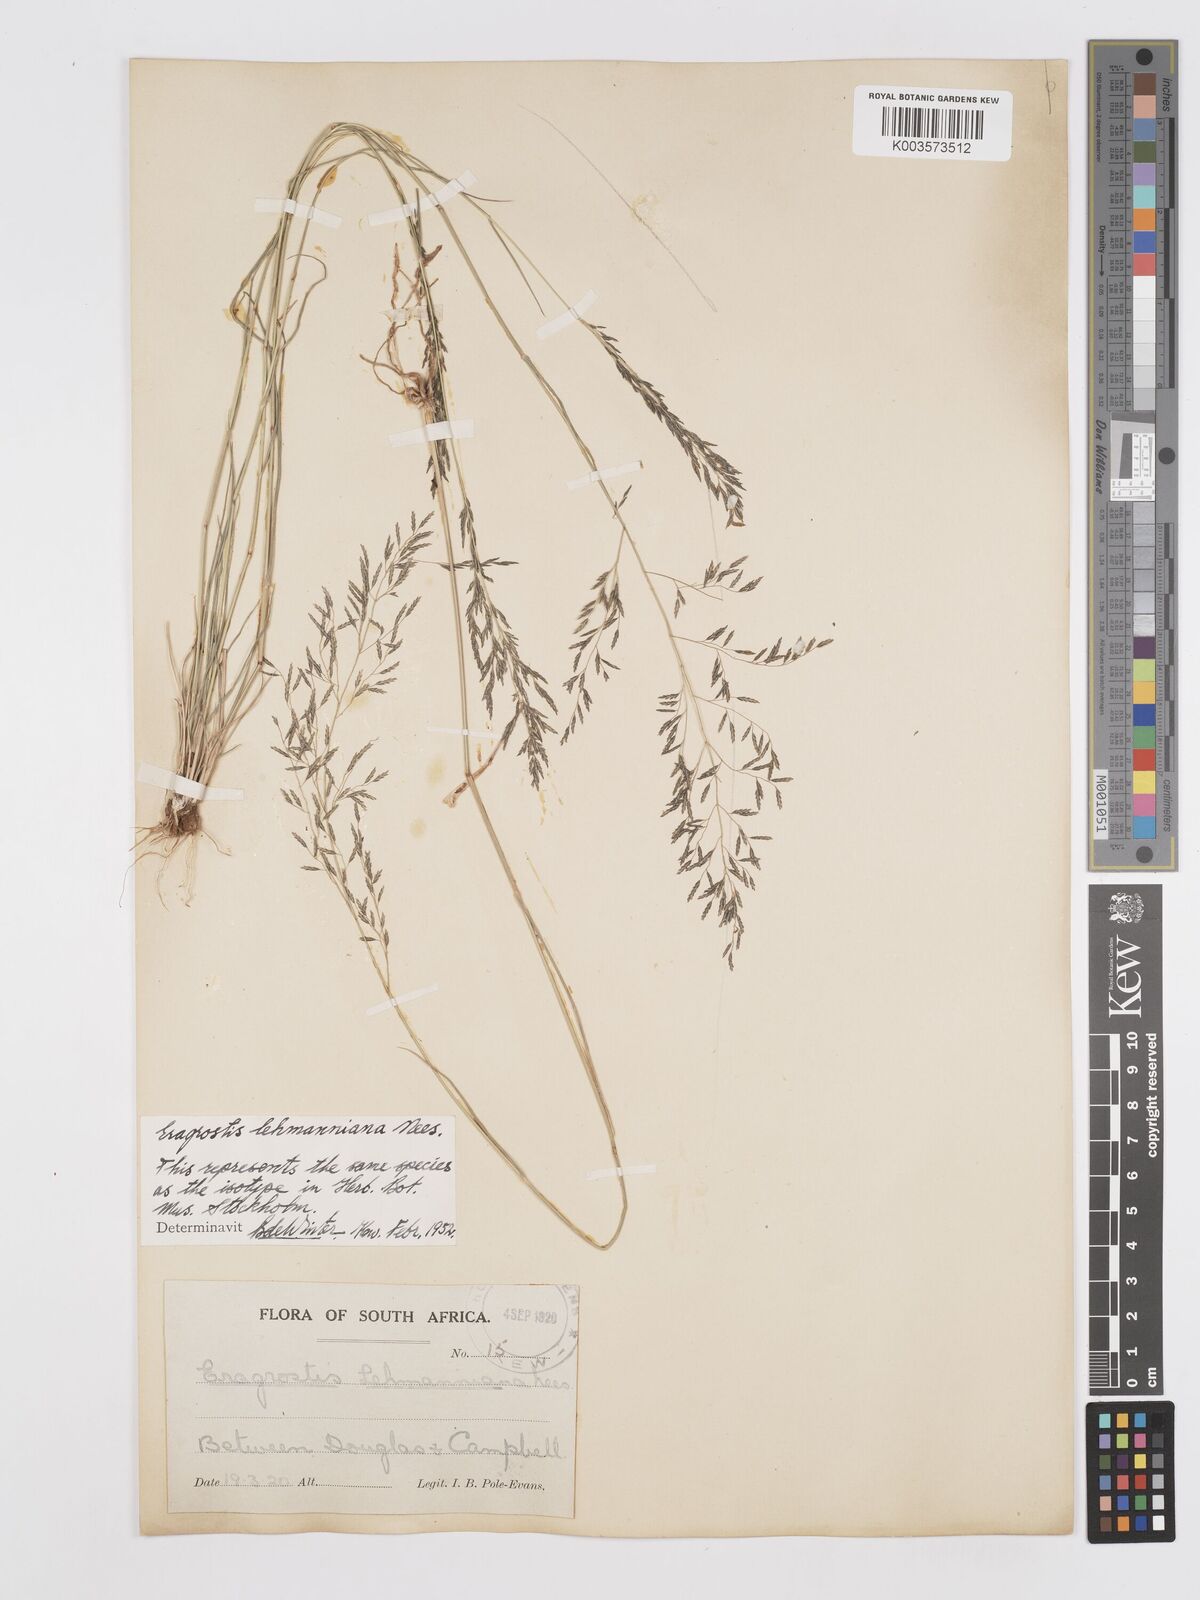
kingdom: Plantae
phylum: Tracheophyta
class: Liliopsida
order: Poales
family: Poaceae
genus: Eragrostis
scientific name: Eragrostis lehmanniana
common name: Lehmann lovegrass
